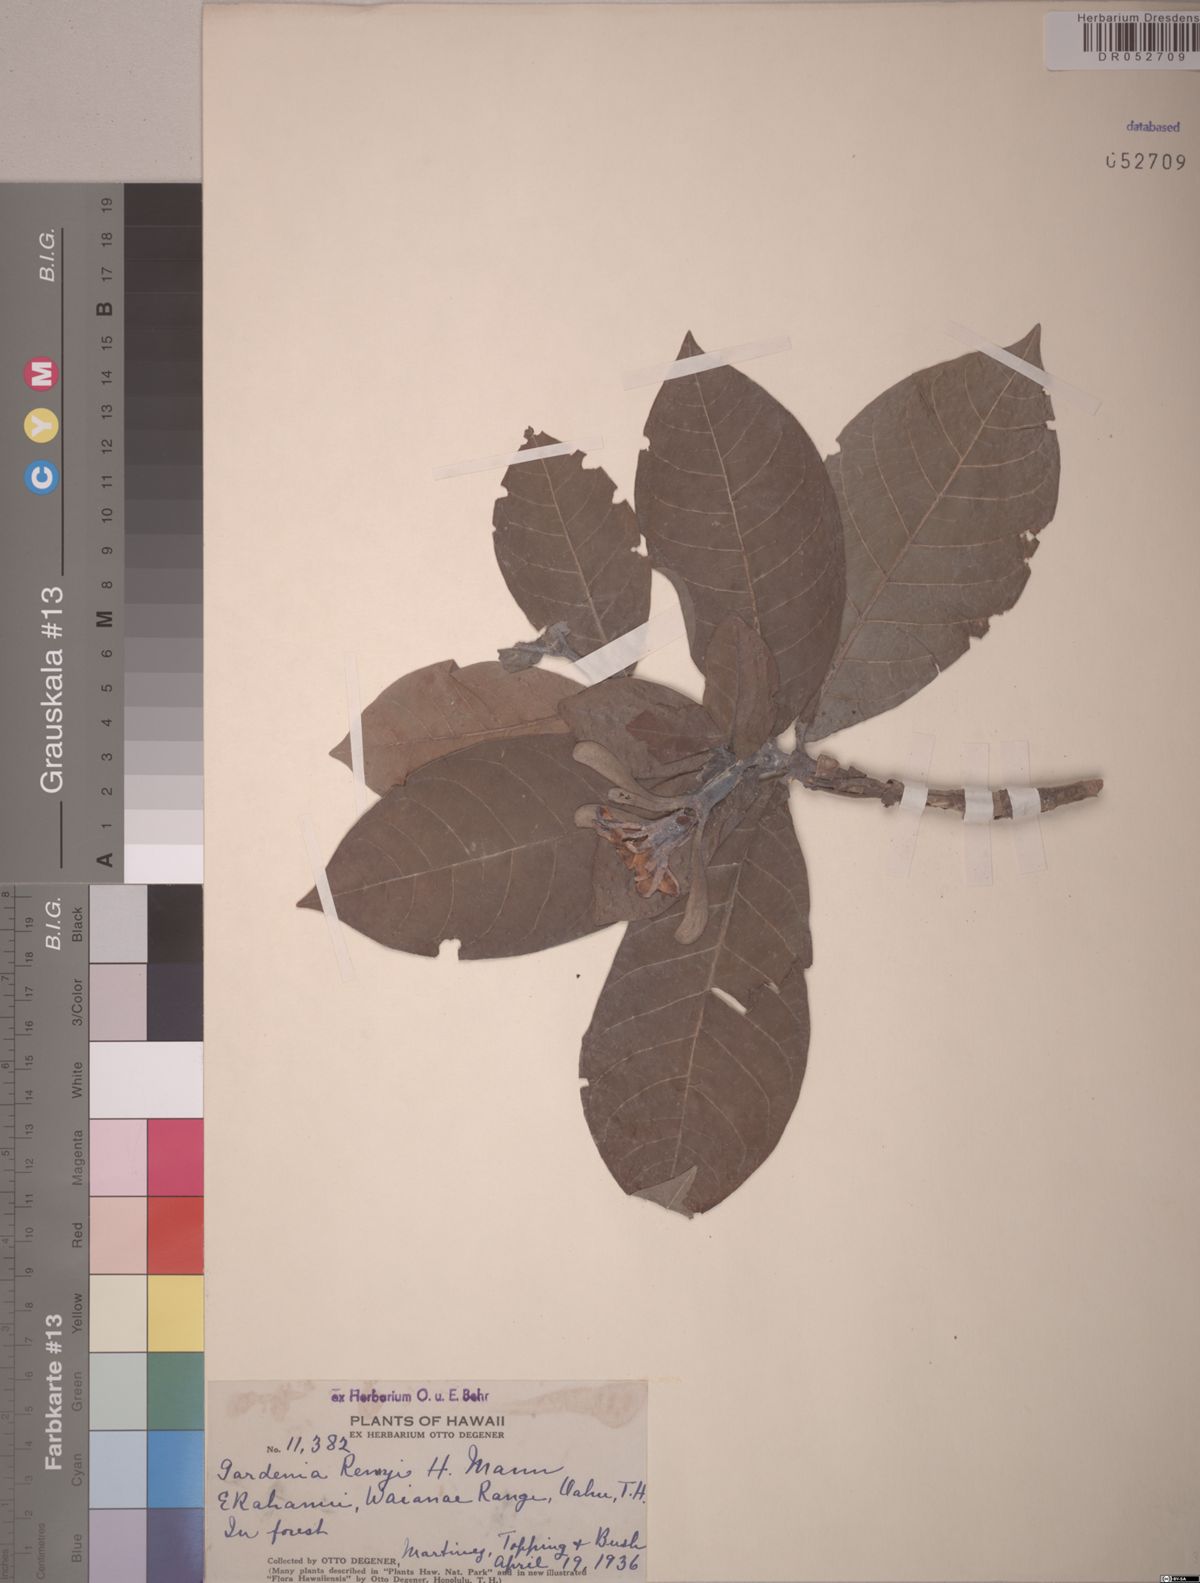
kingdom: Plantae
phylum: Tracheophyta
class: Magnoliopsida
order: Gentianales
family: Rubiaceae
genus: Gardenia
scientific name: Gardenia remyi
